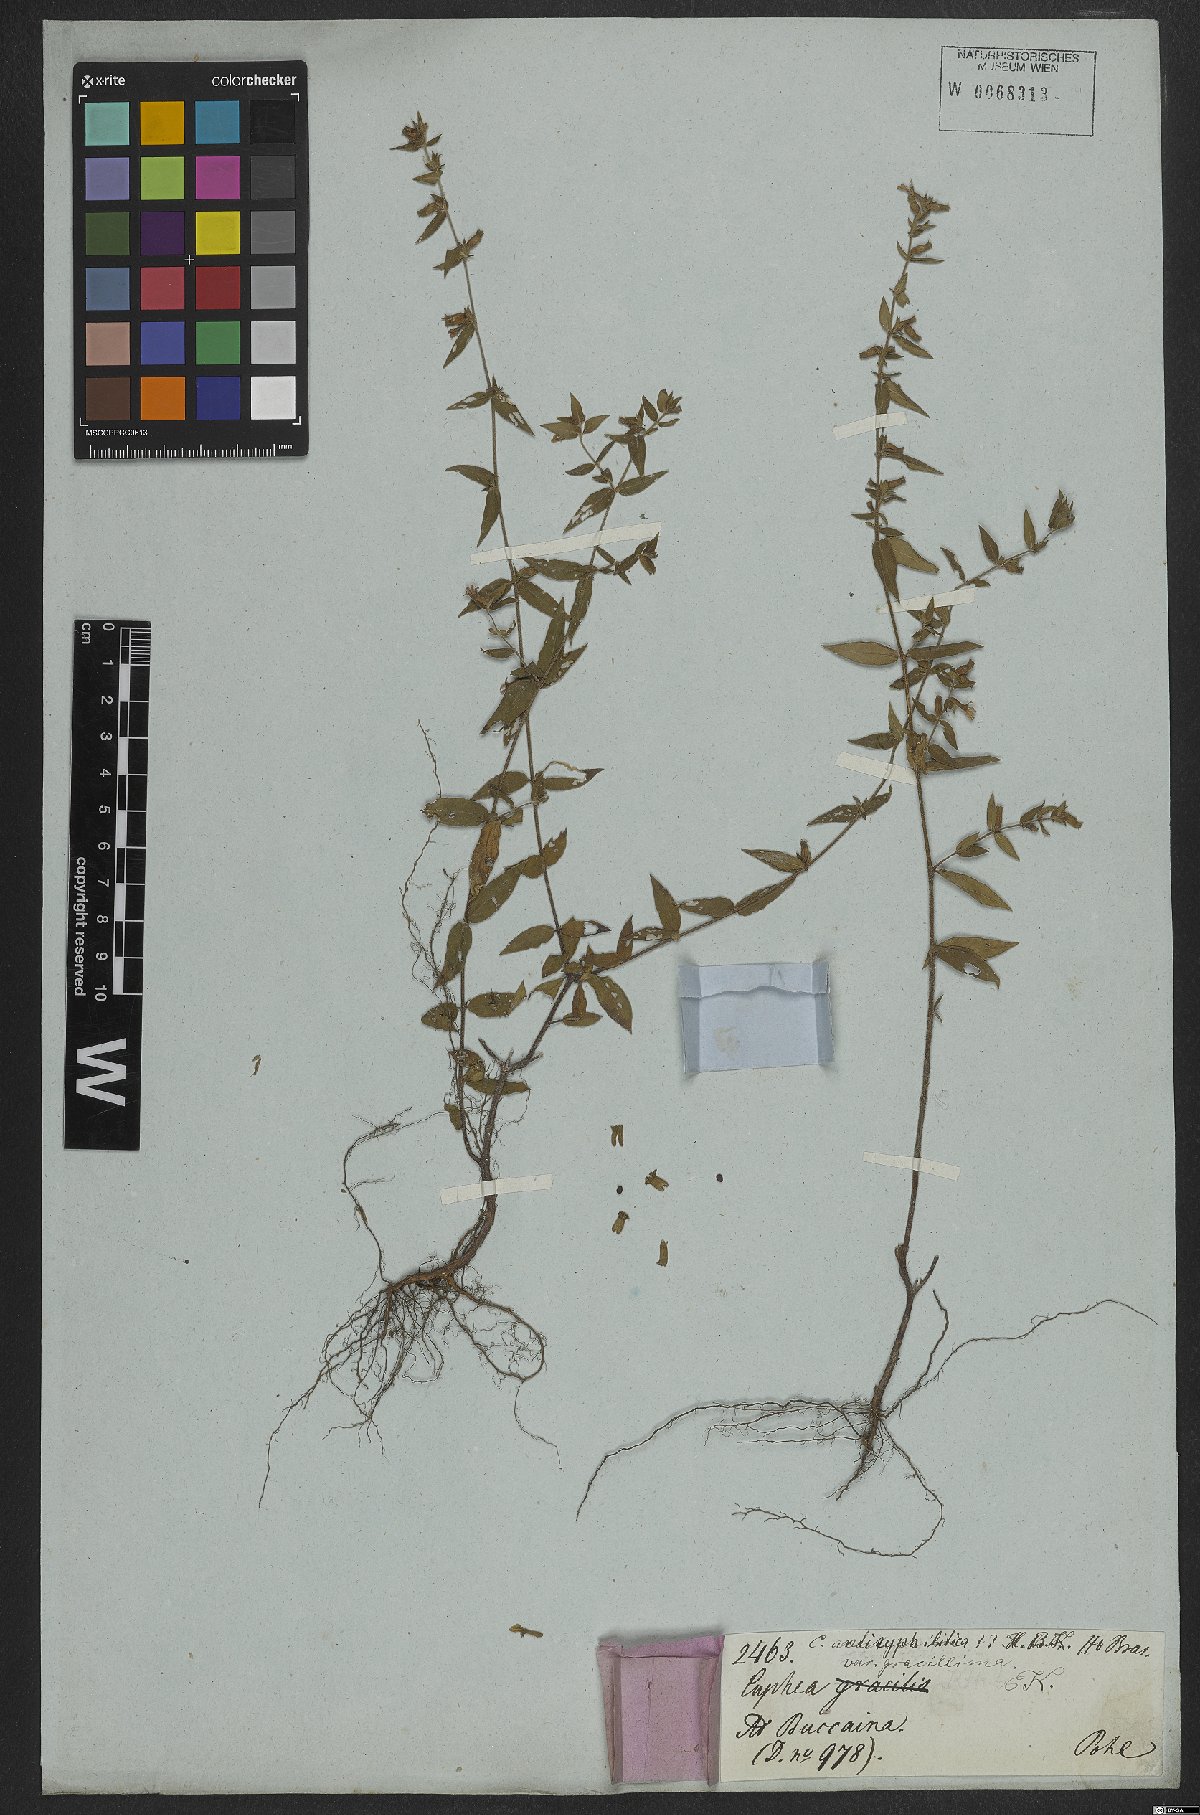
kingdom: Plantae
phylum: Tracheophyta
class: Magnoliopsida
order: Myrtales
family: Lythraceae
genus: Cuphea
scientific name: Cuphea antisyphilitica
